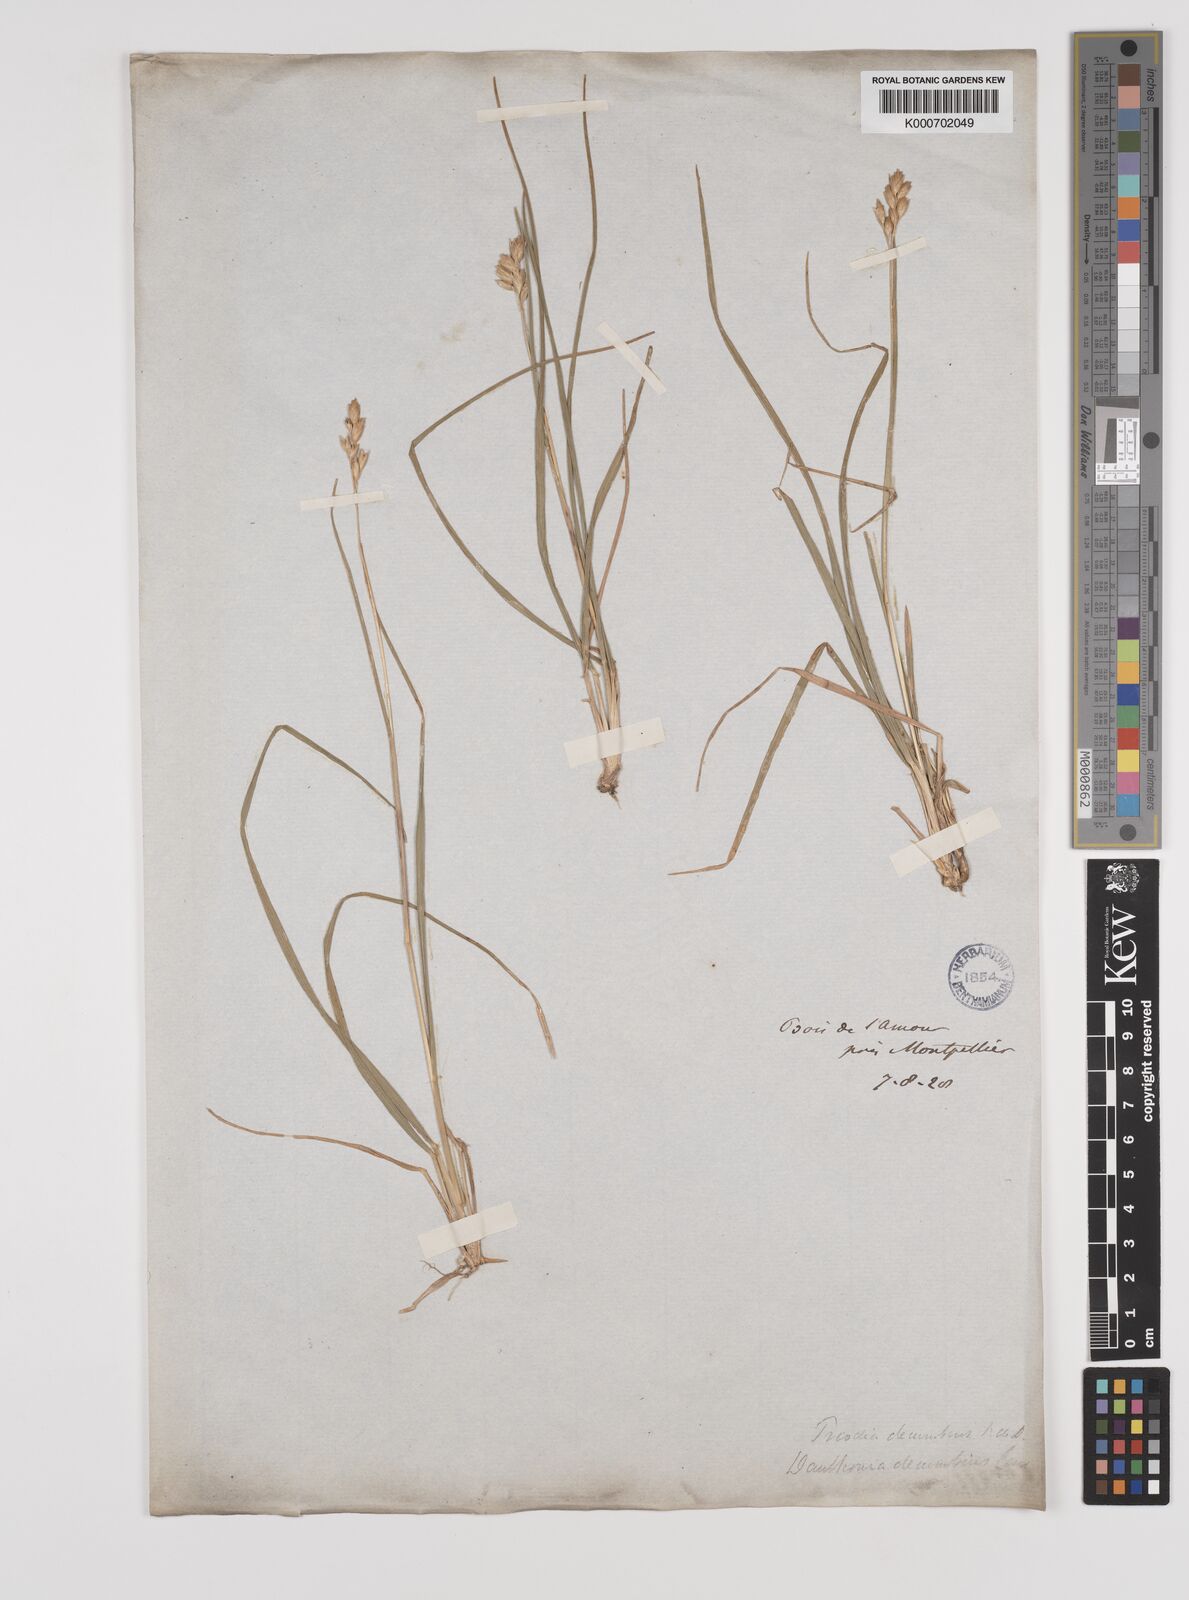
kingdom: Plantae
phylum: Tracheophyta
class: Liliopsida
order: Poales
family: Poaceae
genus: Danthonia
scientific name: Danthonia decumbens
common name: Common heathgrass
